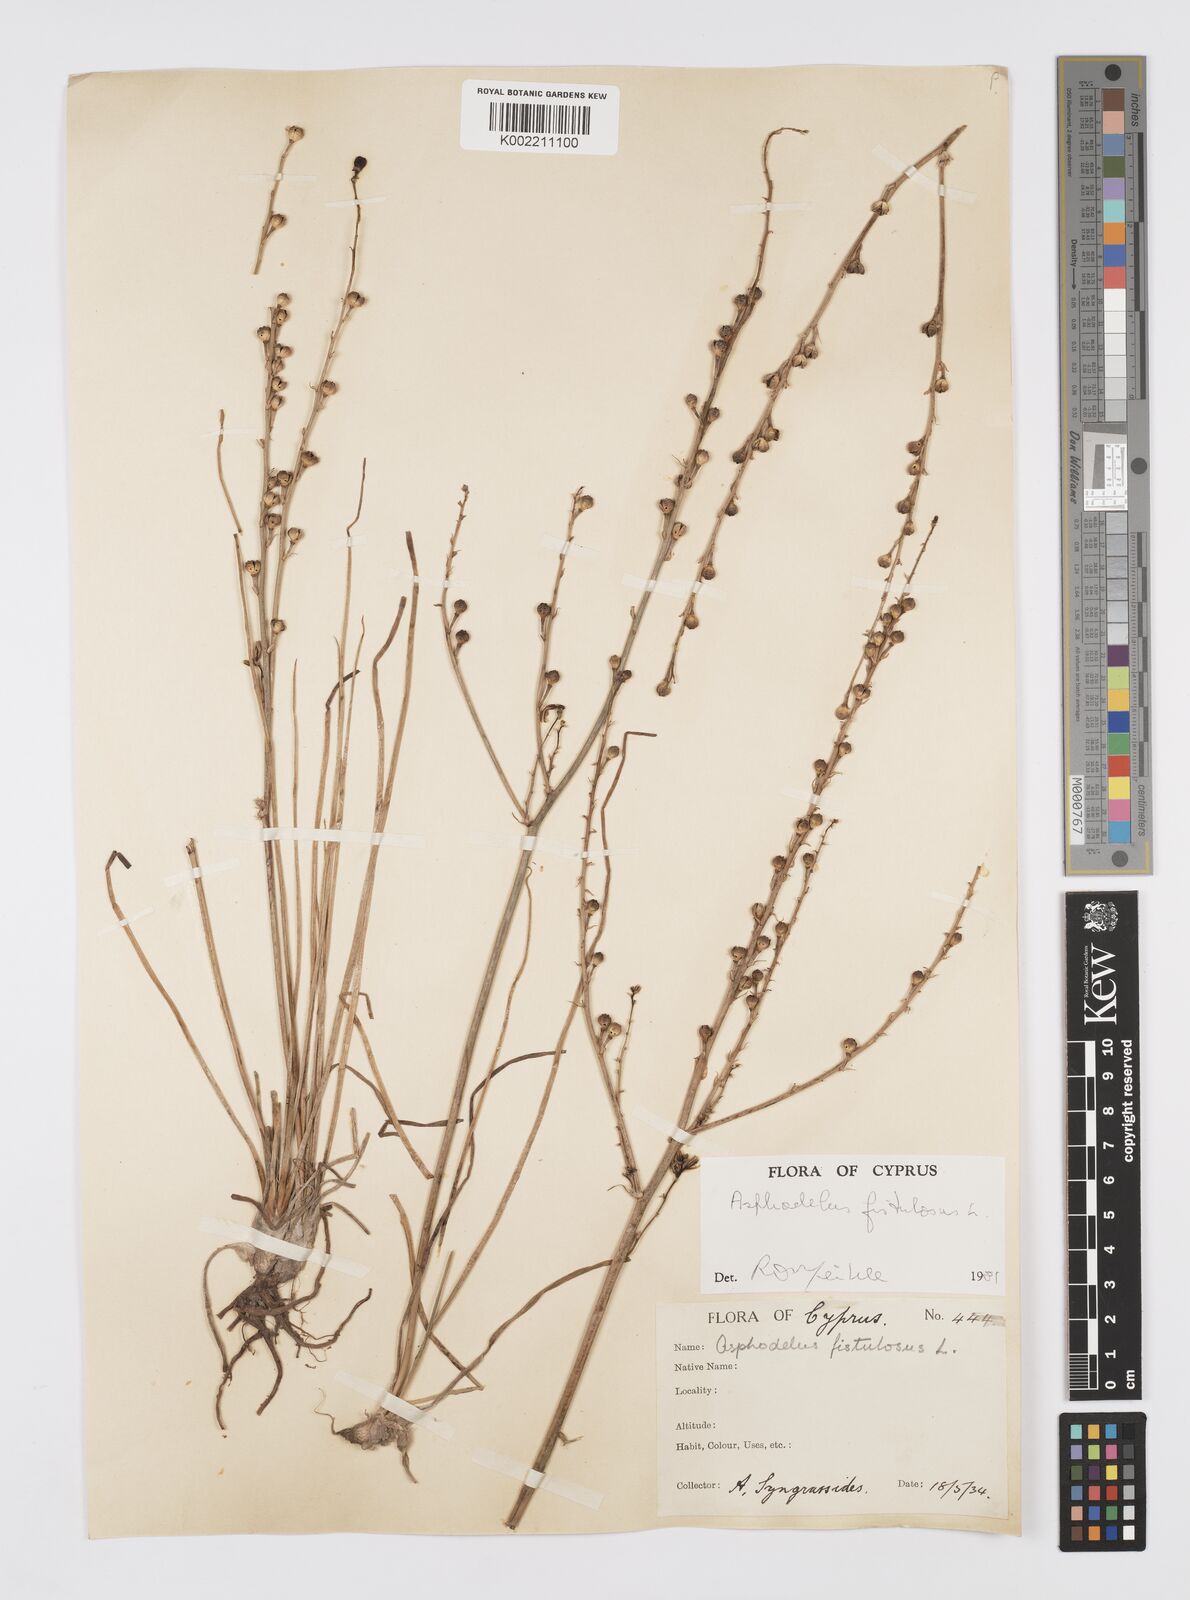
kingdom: Plantae
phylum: Tracheophyta
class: Liliopsida
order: Asparagales
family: Asphodelaceae
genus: Asphodelus
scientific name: Asphodelus fistulosus
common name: Onionweed
